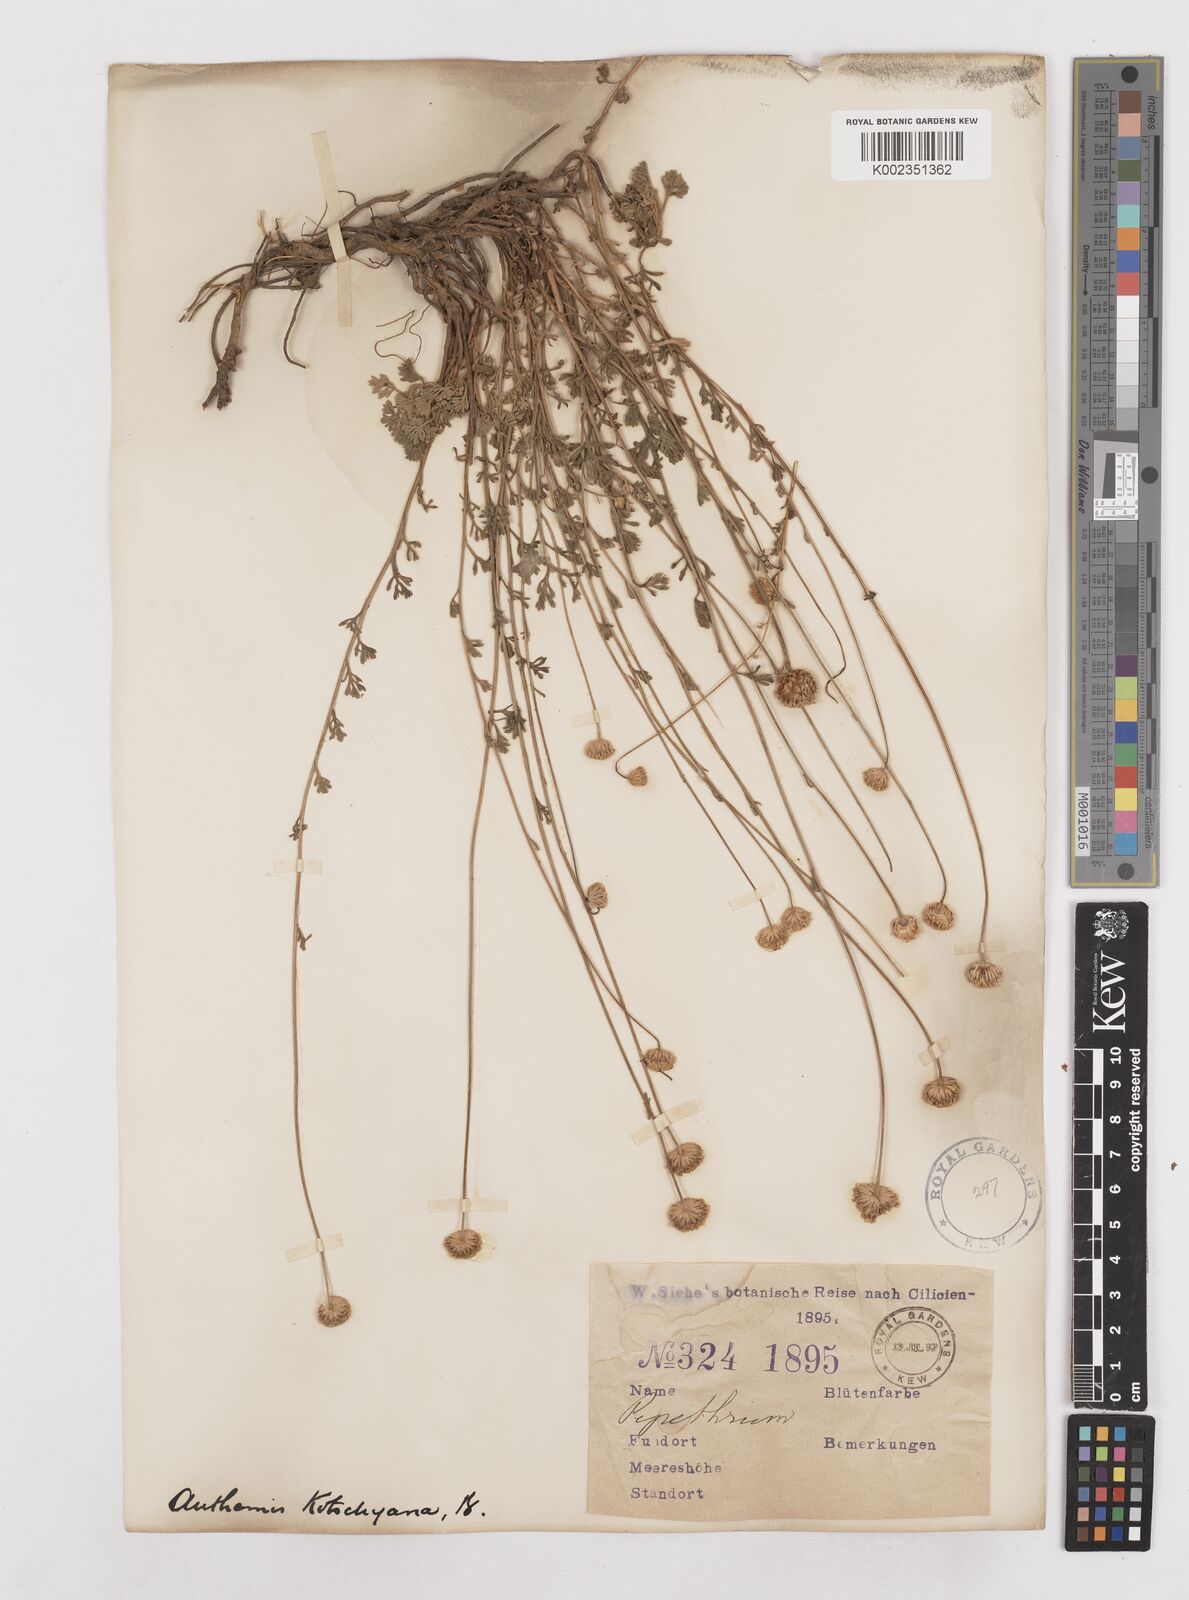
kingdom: Plantae
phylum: Tracheophyta
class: Magnoliopsida
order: Asterales
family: Asteraceae
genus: Anthemis
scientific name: Anthemis kotschyana
